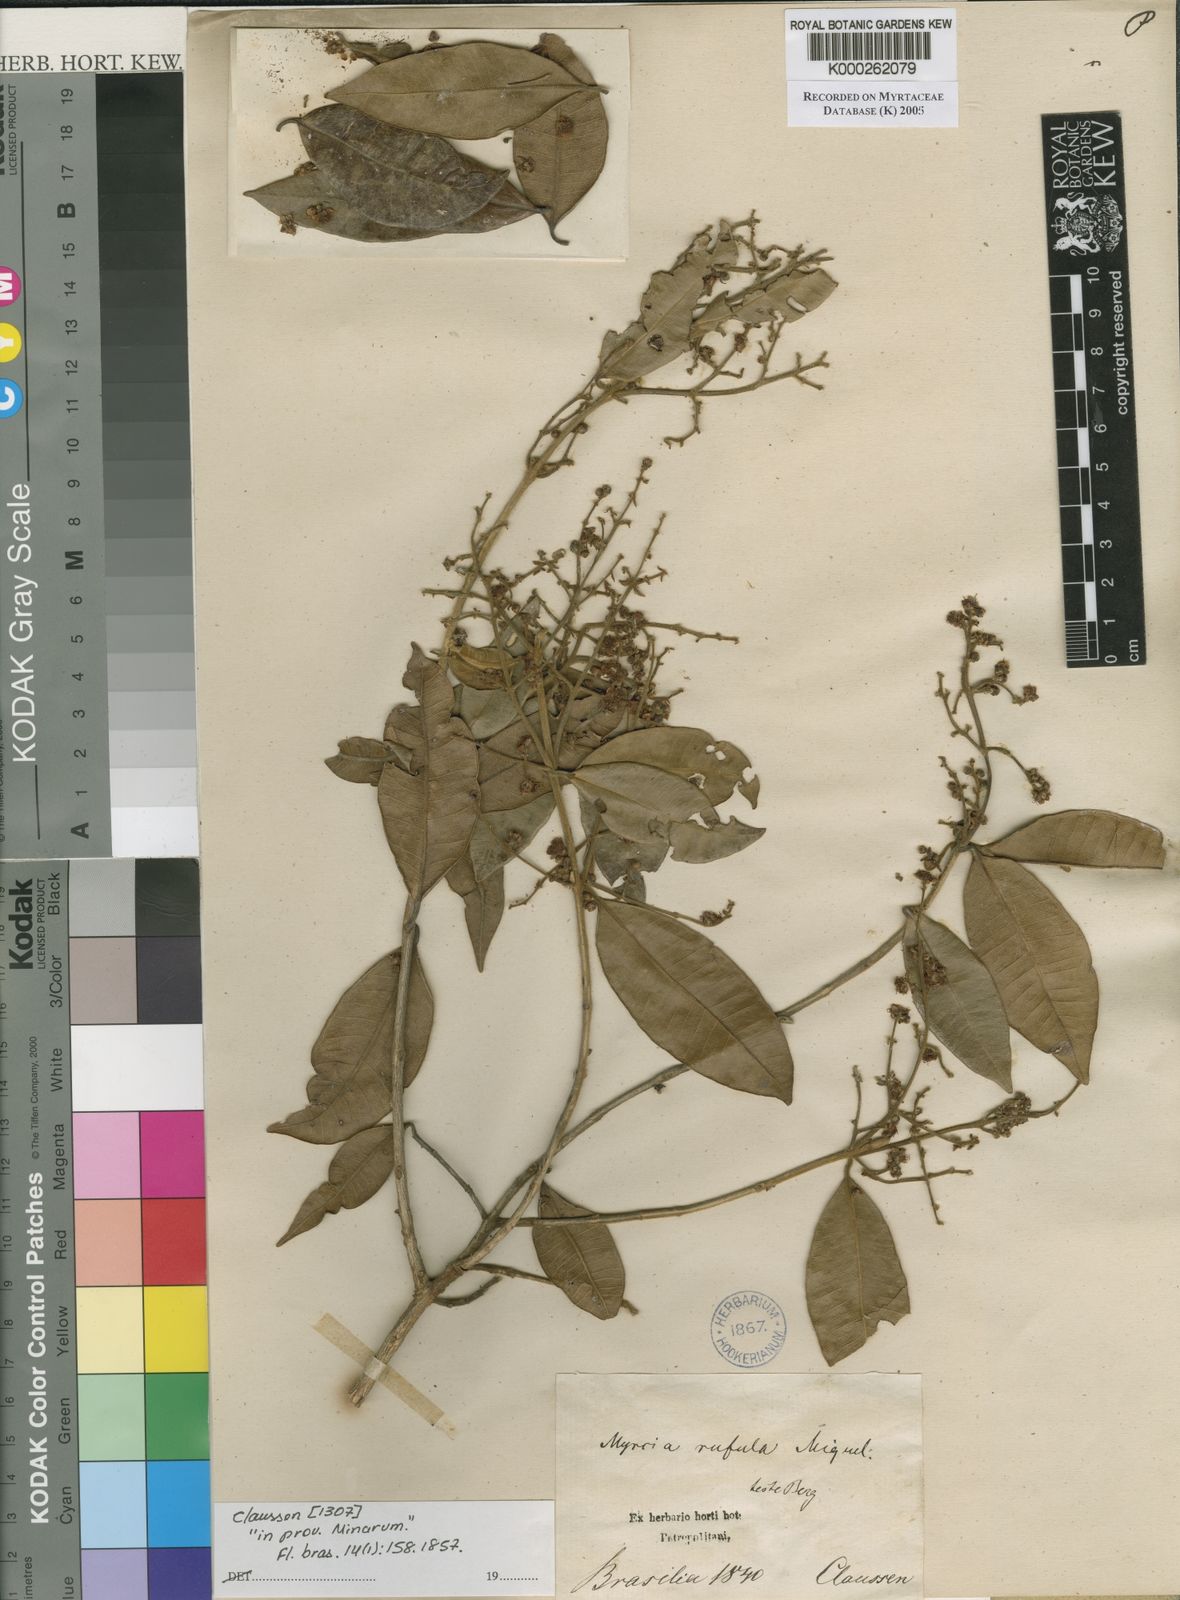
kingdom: Plantae
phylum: Tracheophyta
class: Magnoliopsida
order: Myrtales
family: Myrtaceae
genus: Myrcia
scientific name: Myrcia splendens
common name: Surinam cherry
